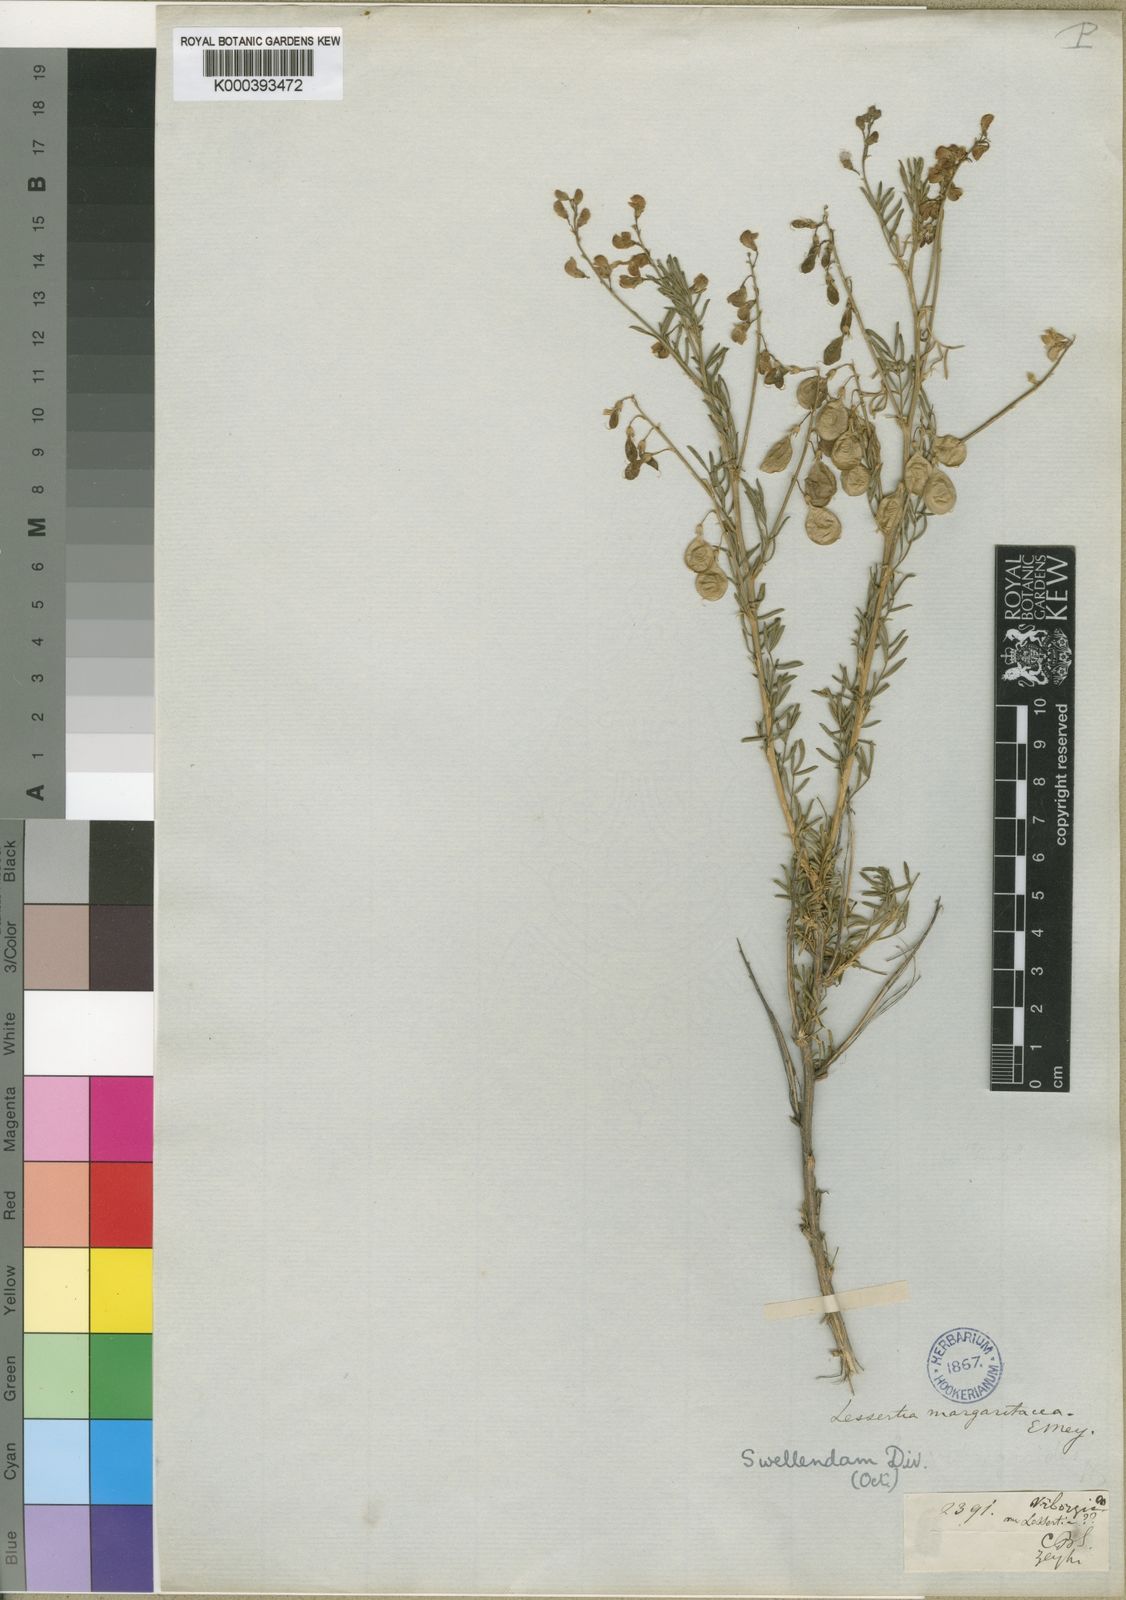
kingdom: Plantae
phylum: Tracheophyta
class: Magnoliopsida
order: Fabales
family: Fabaceae
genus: Lessertia
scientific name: Lessertia margaritacea
